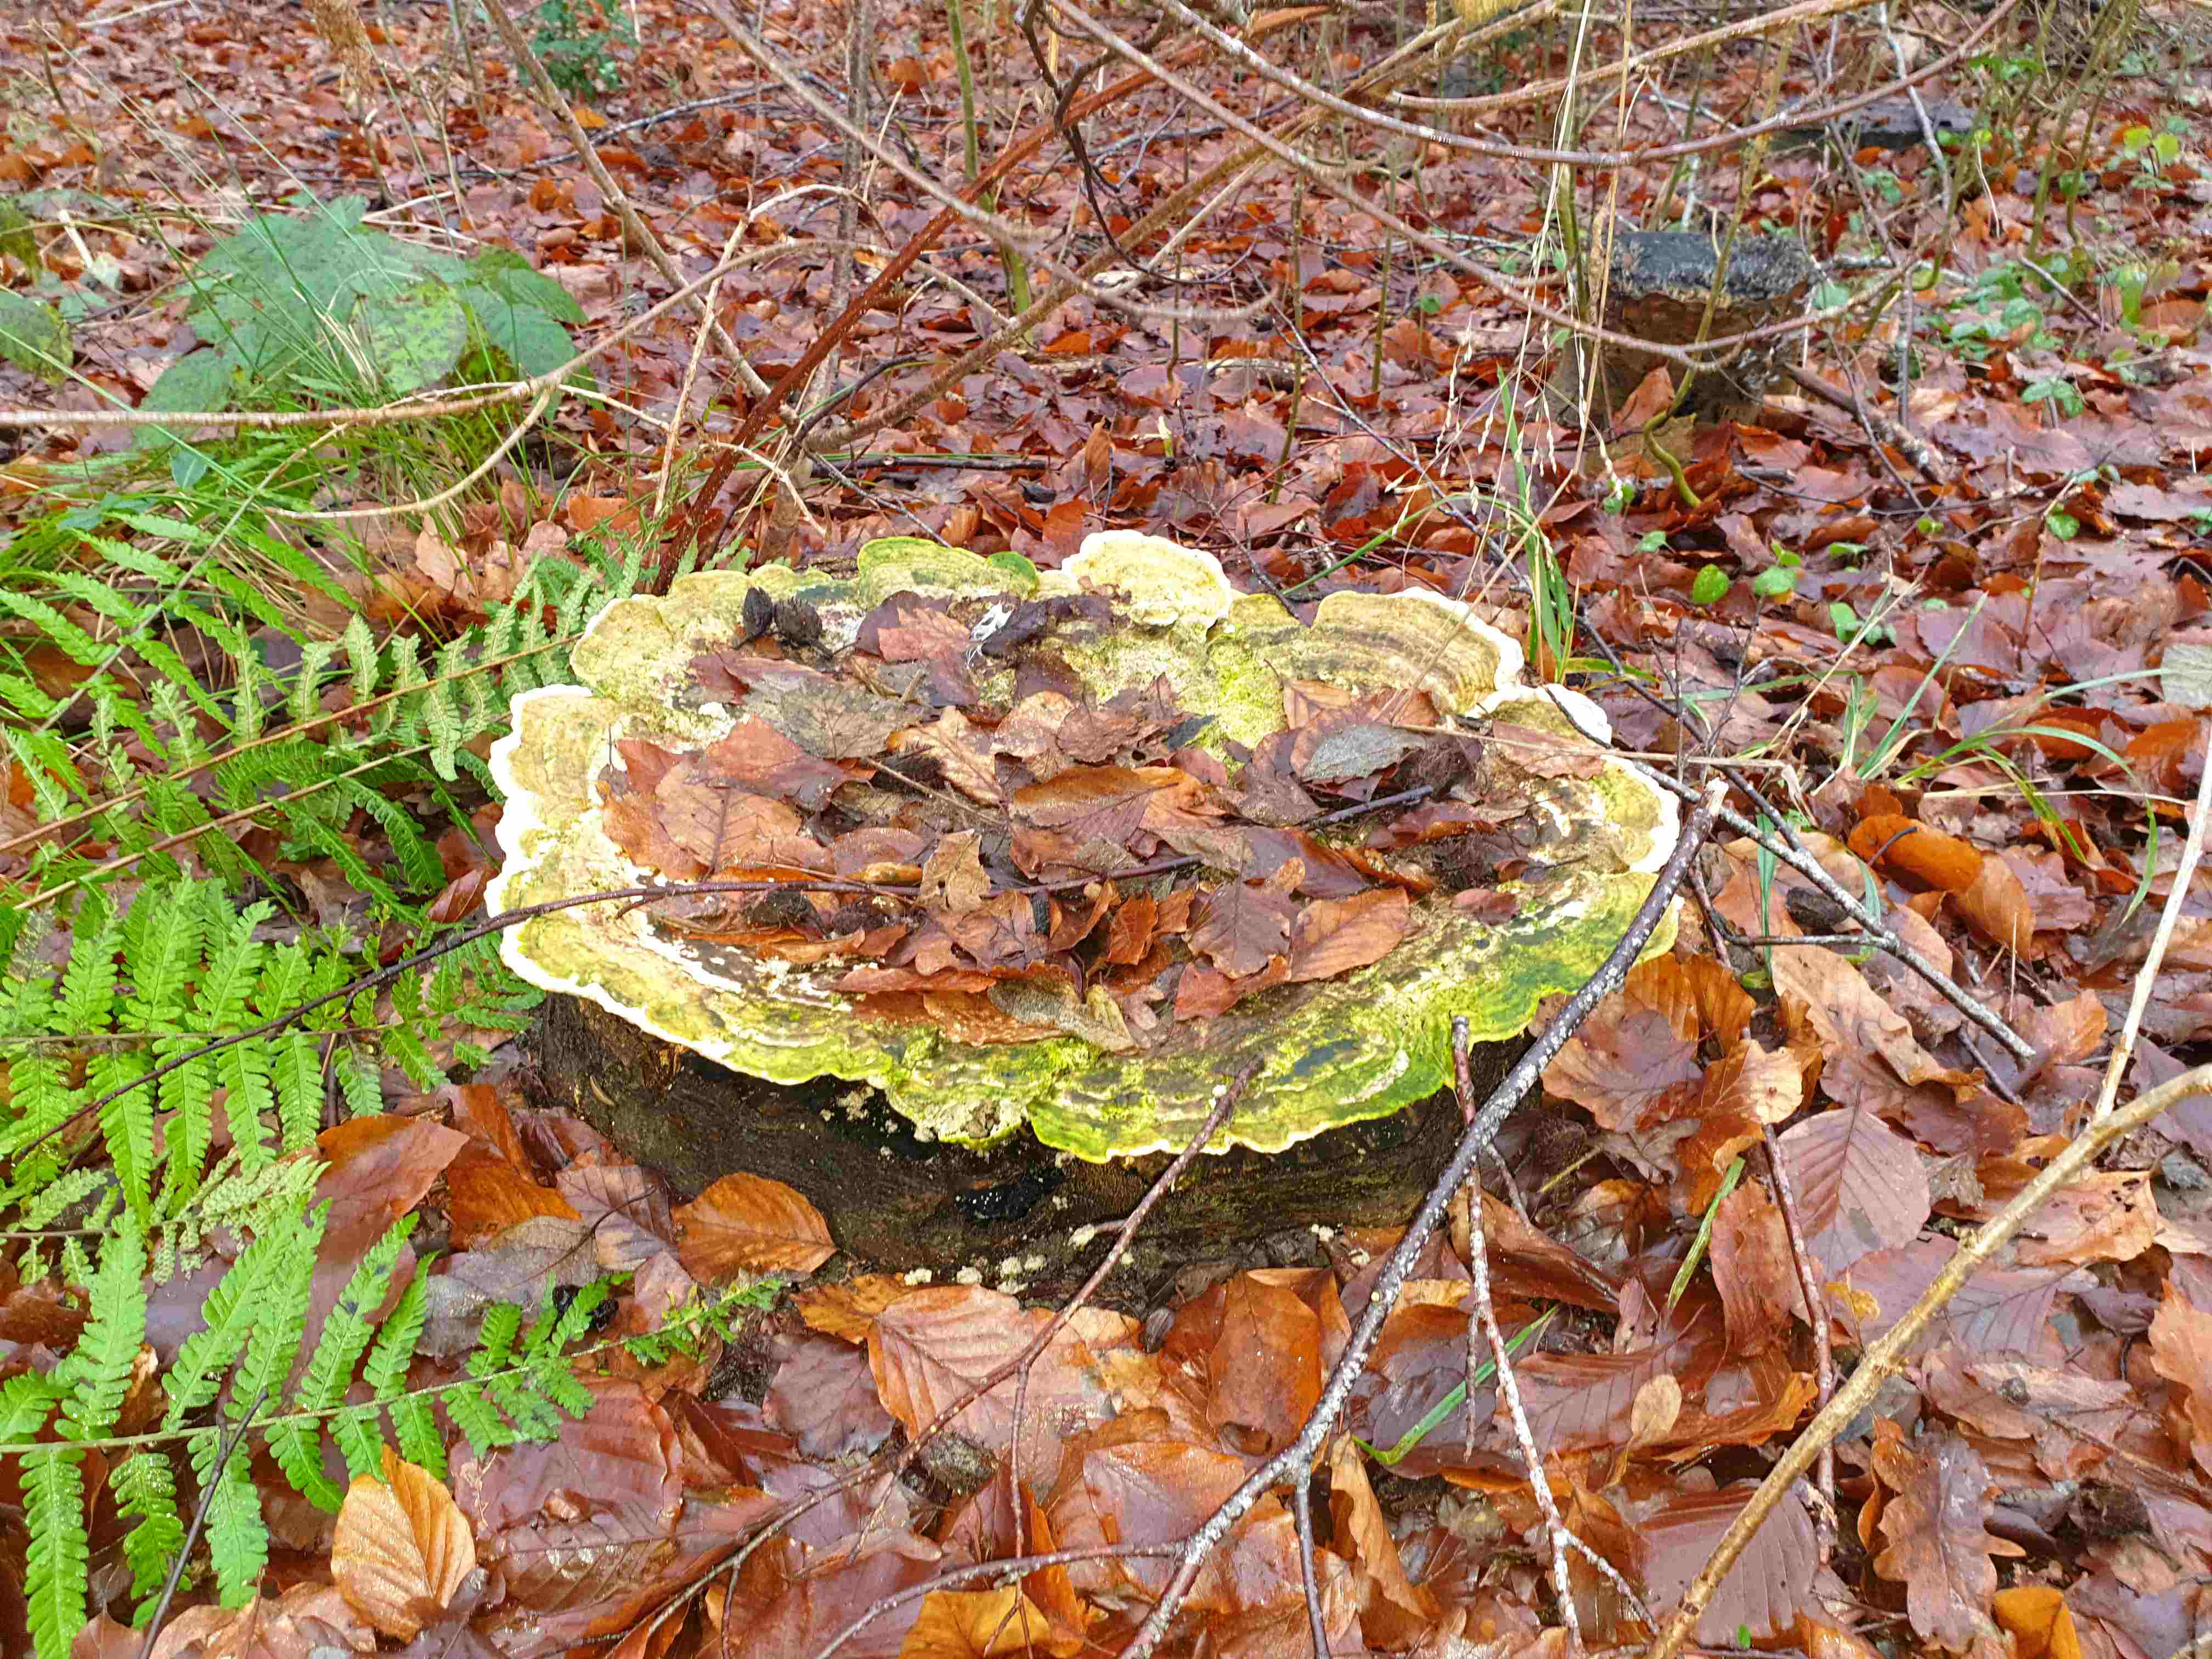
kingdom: Fungi
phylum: Basidiomycota
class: Agaricomycetes
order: Polyporales
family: Polyporaceae
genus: Trametes
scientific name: Trametes
